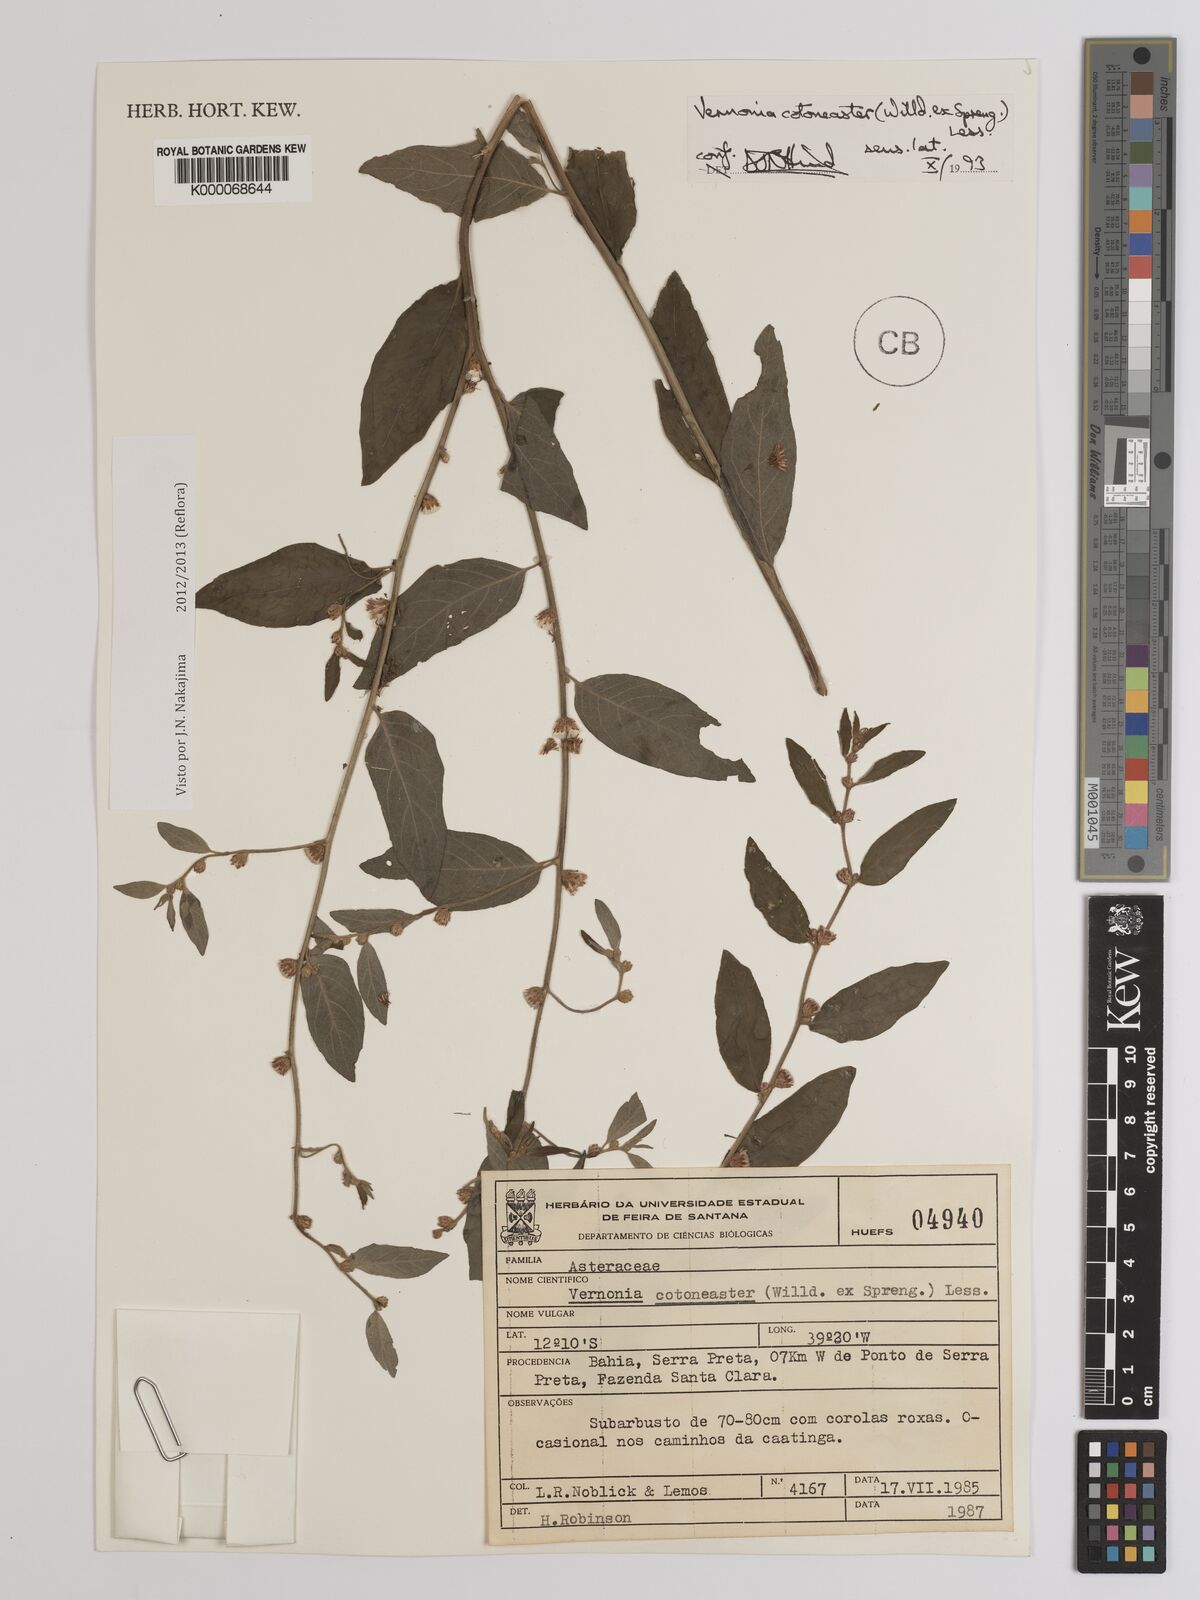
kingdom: Plantae
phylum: Tracheophyta
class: Magnoliopsida
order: Asterales
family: Asteraceae
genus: Lepidaploa
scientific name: Lepidaploa cotoneaster
